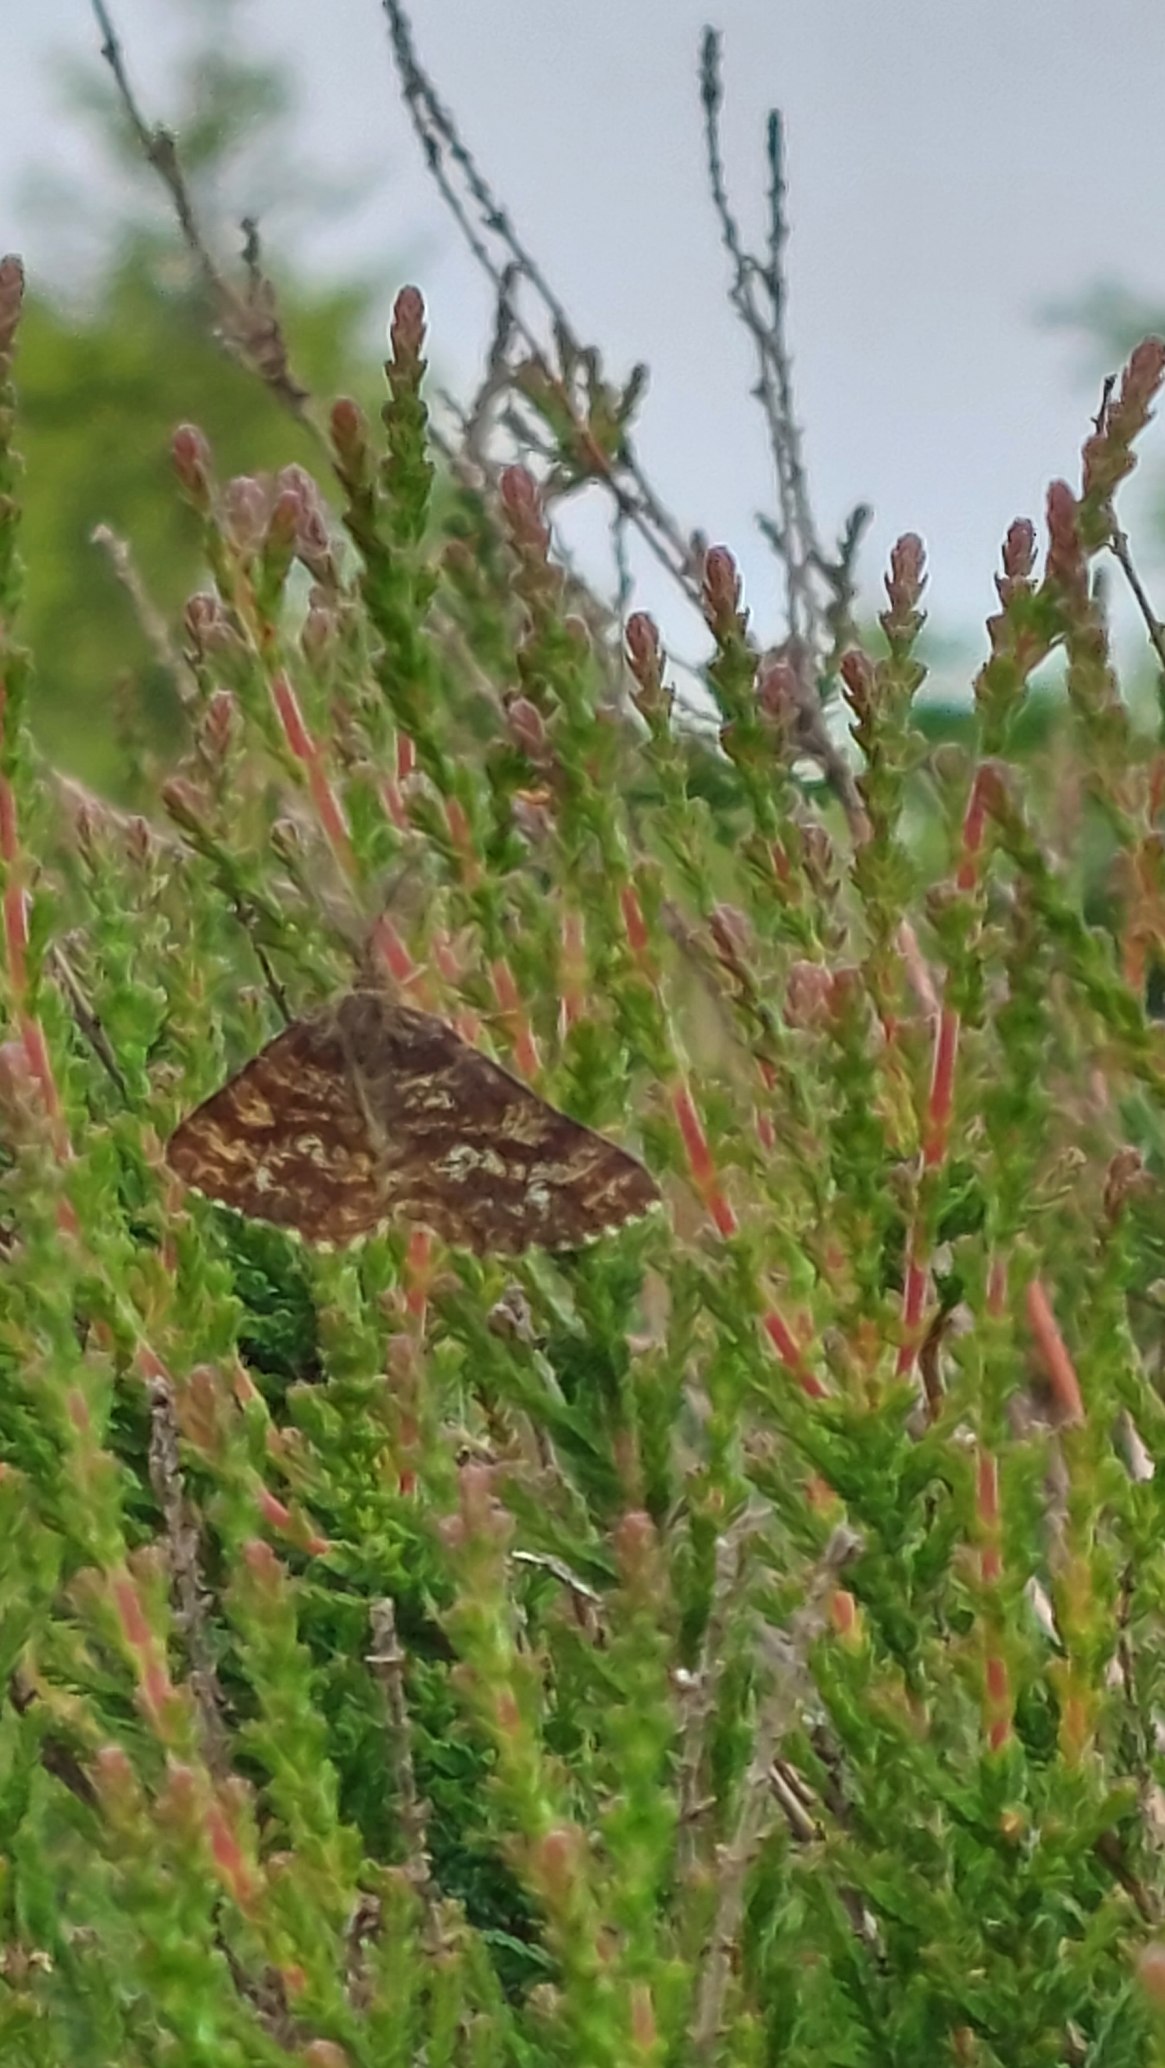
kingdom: Animalia
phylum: Arthropoda
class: Insecta
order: Lepidoptera
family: Geometridae
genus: Ematurga
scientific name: Ematurga atomaria
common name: Lyngmåler
